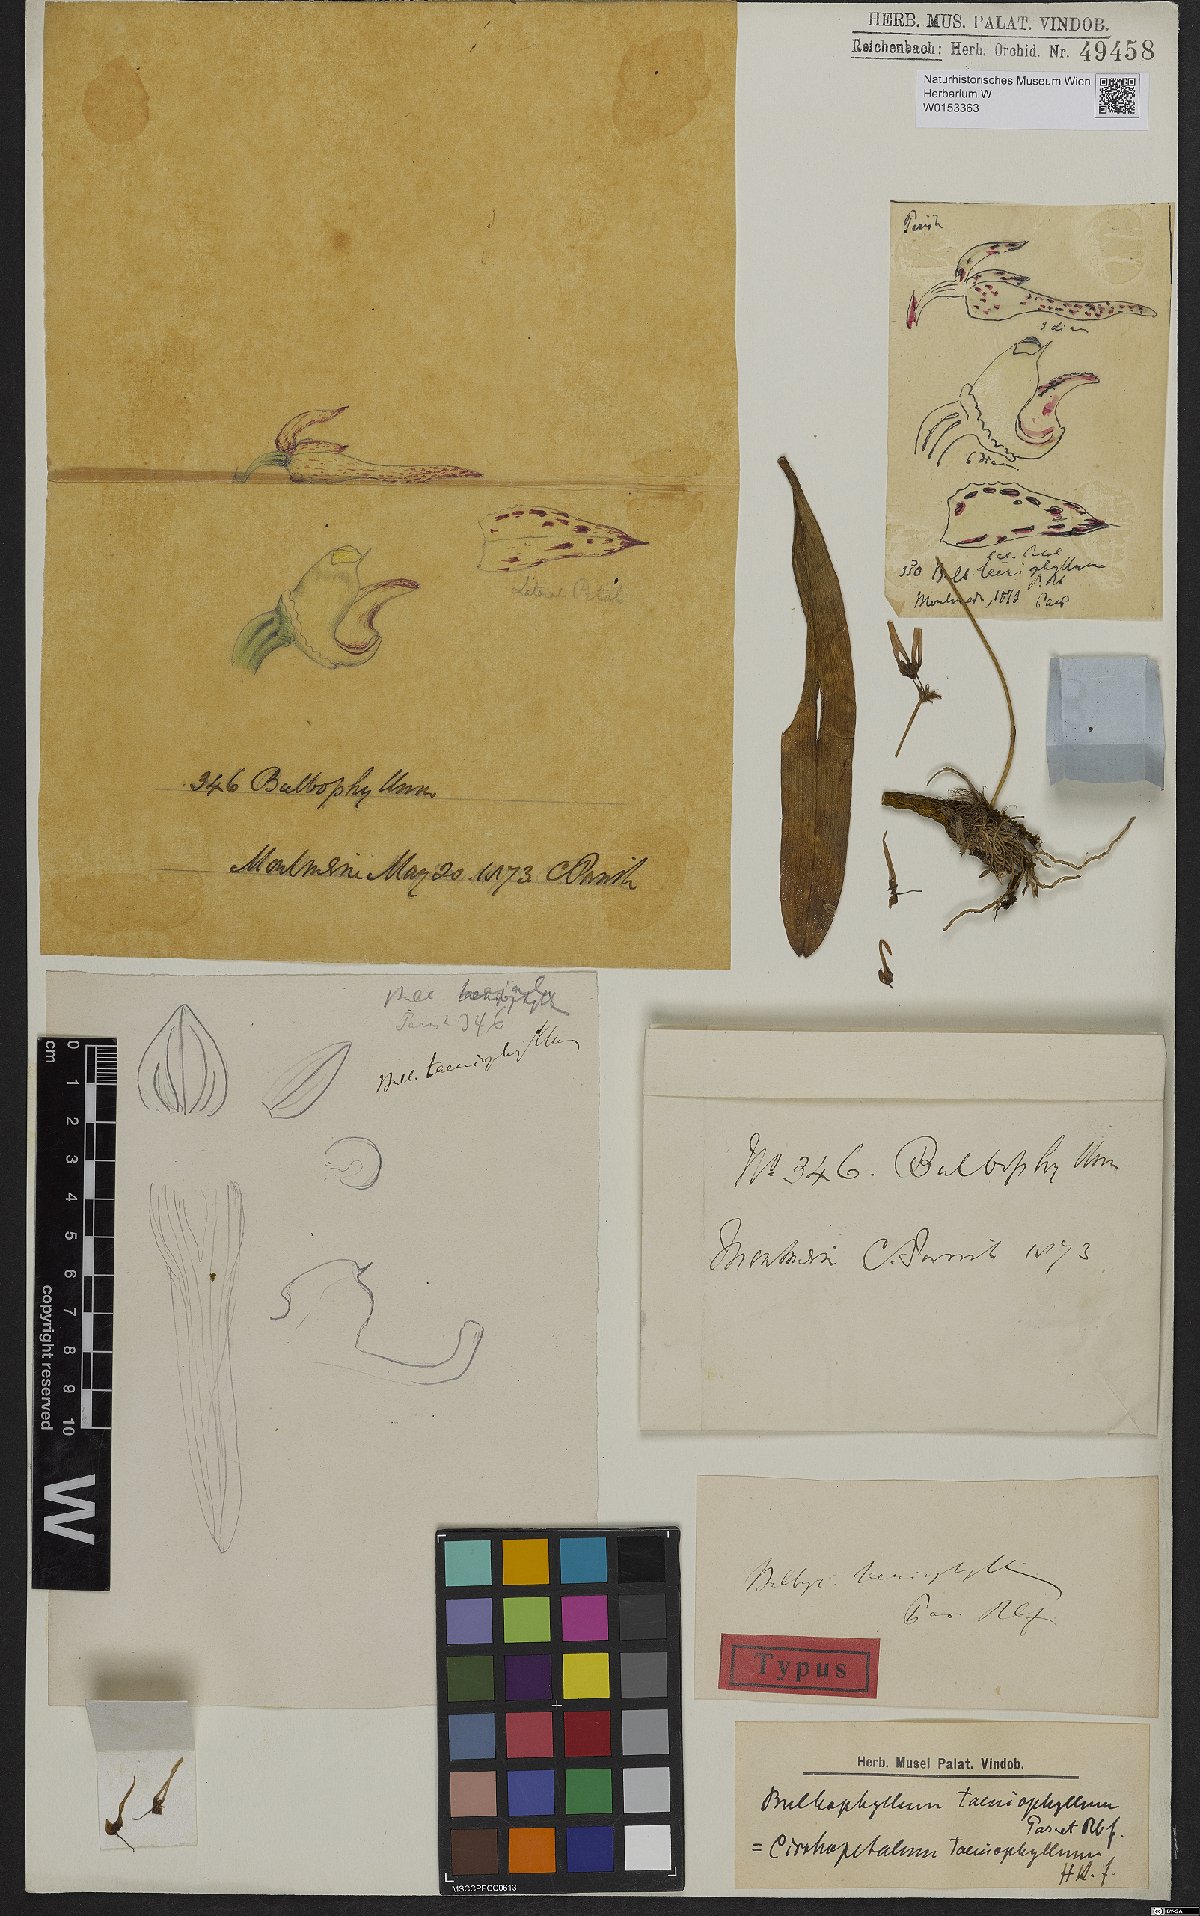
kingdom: Plantae
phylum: Tracheophyta
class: Liliopsida
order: Asparagales
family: Orchidaceae
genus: Bulbophyllum
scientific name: Bulbophyllum taeniophyllum
